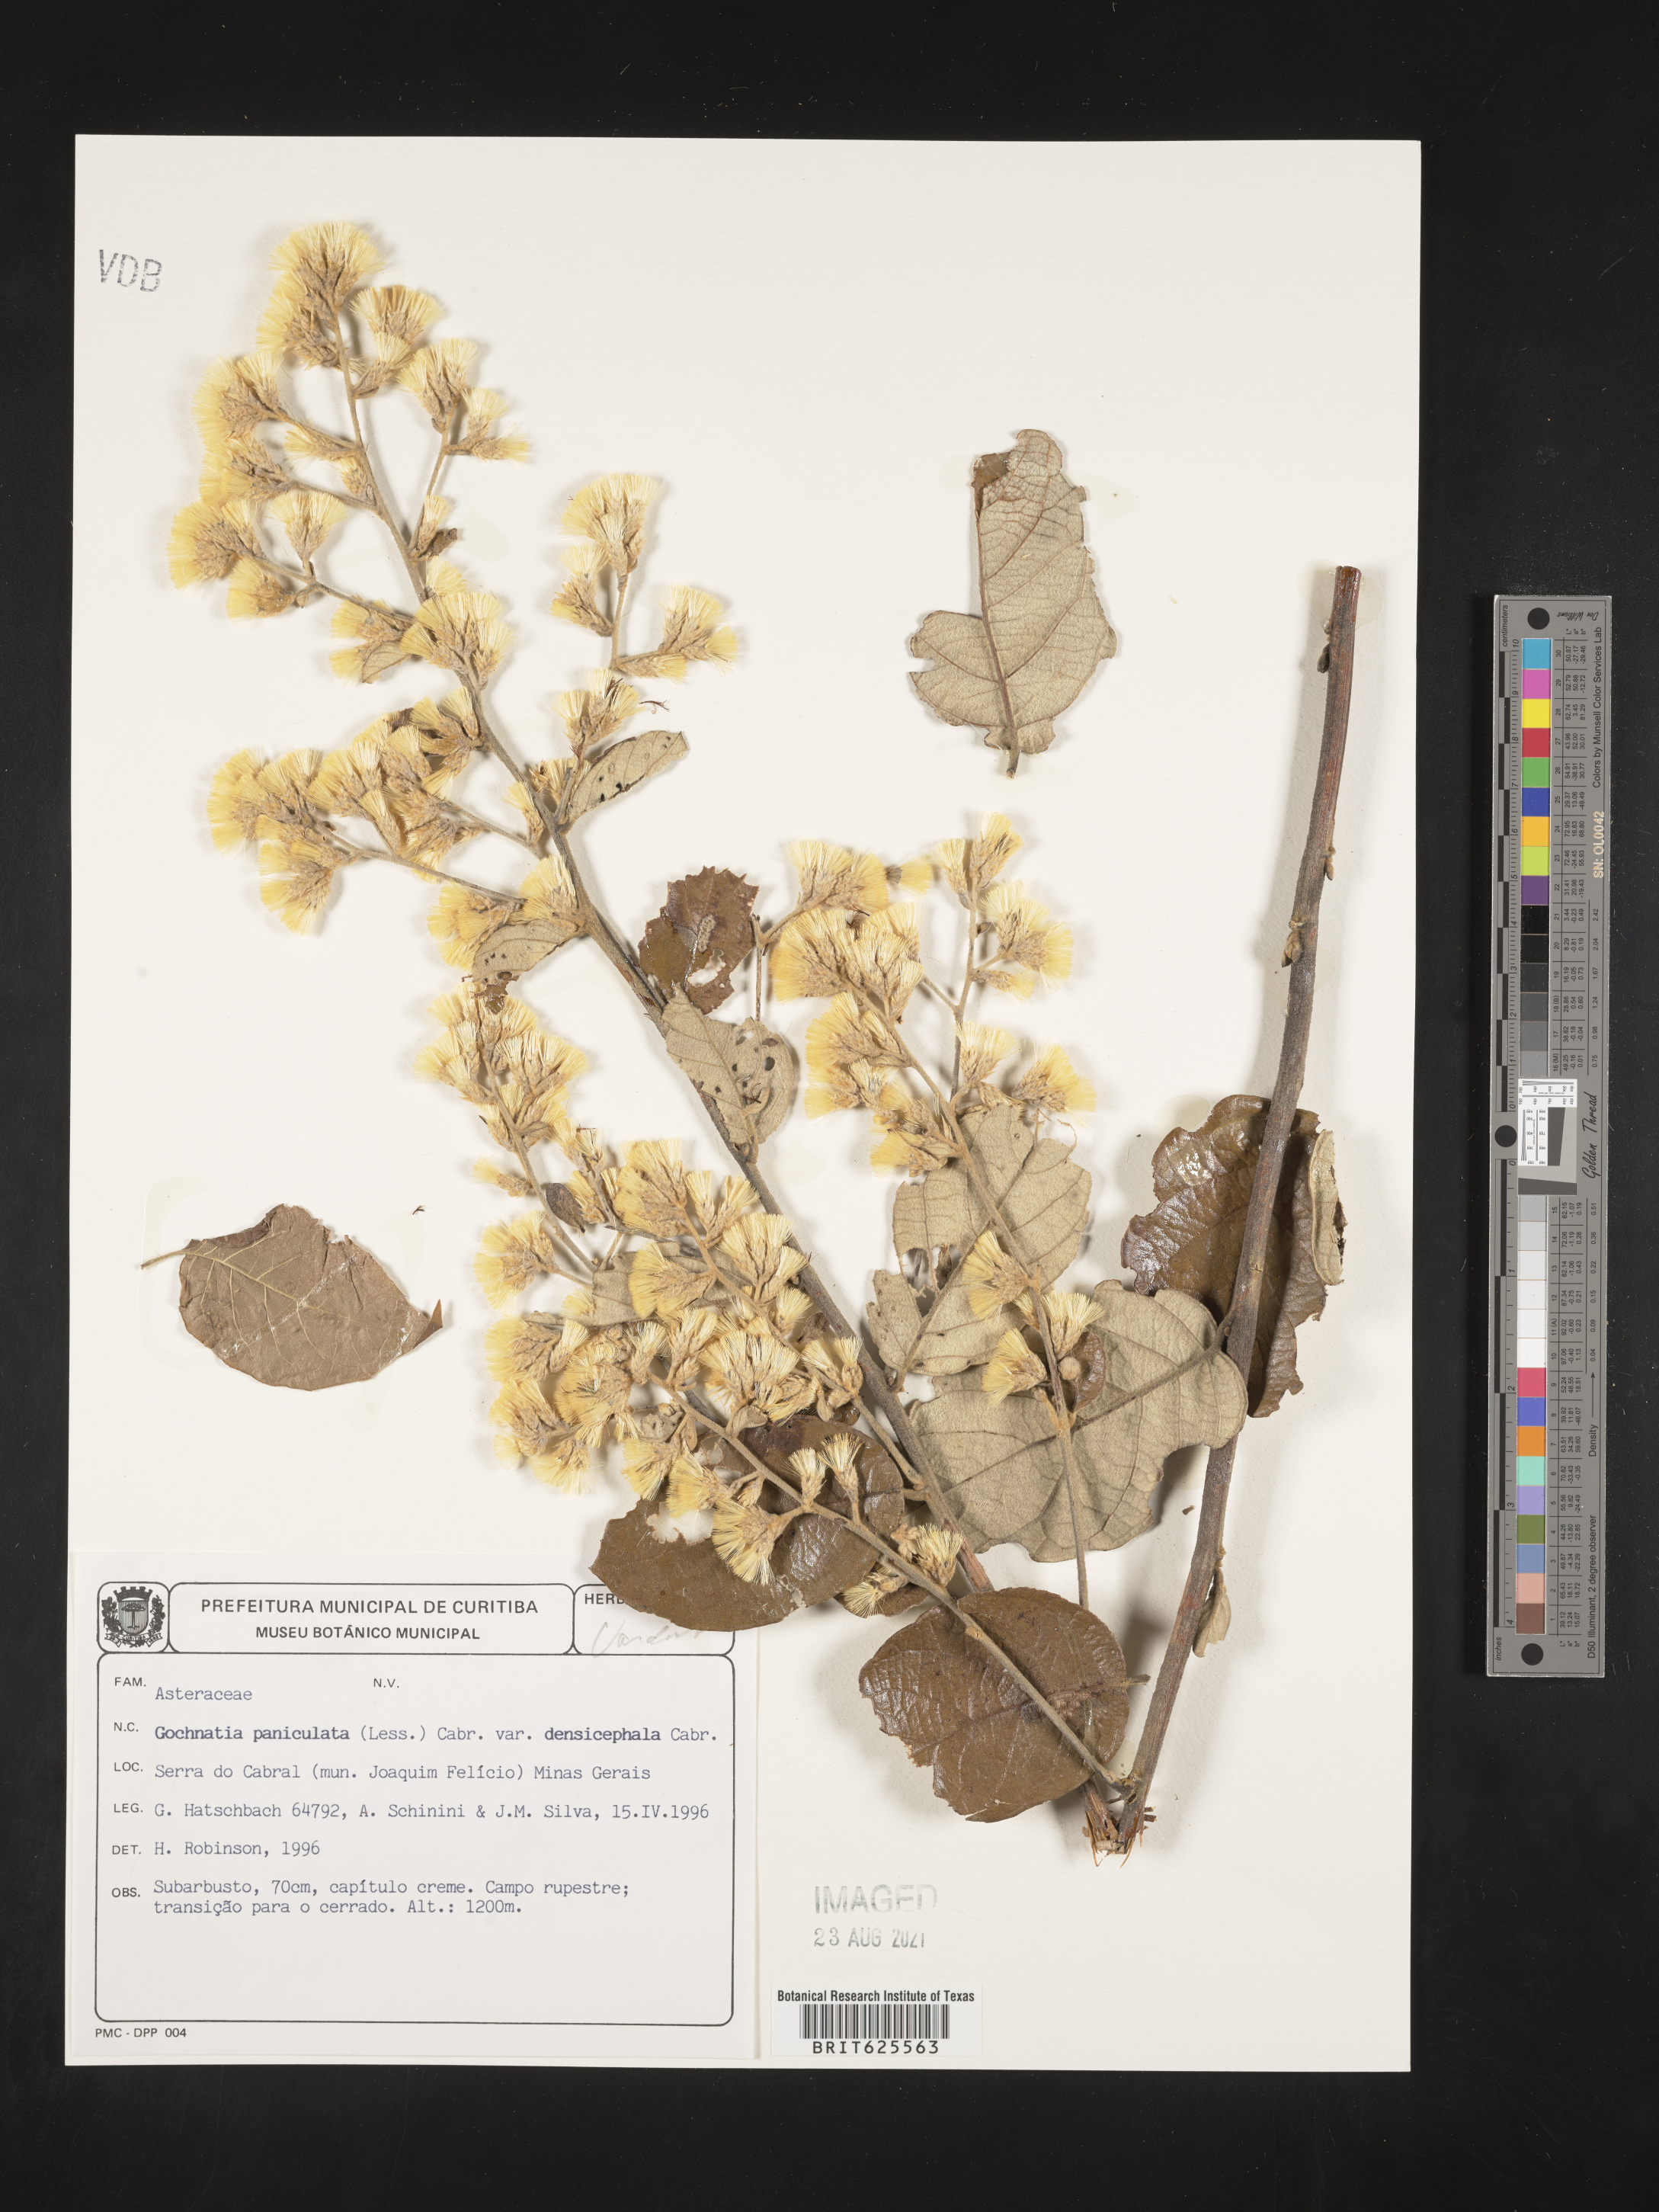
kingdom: Plantae
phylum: Tracheophyta
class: Magnoliopsida
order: Asterales
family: Asteraceae
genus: Moquiniastrum
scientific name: Moquiniastrum densicephalum
